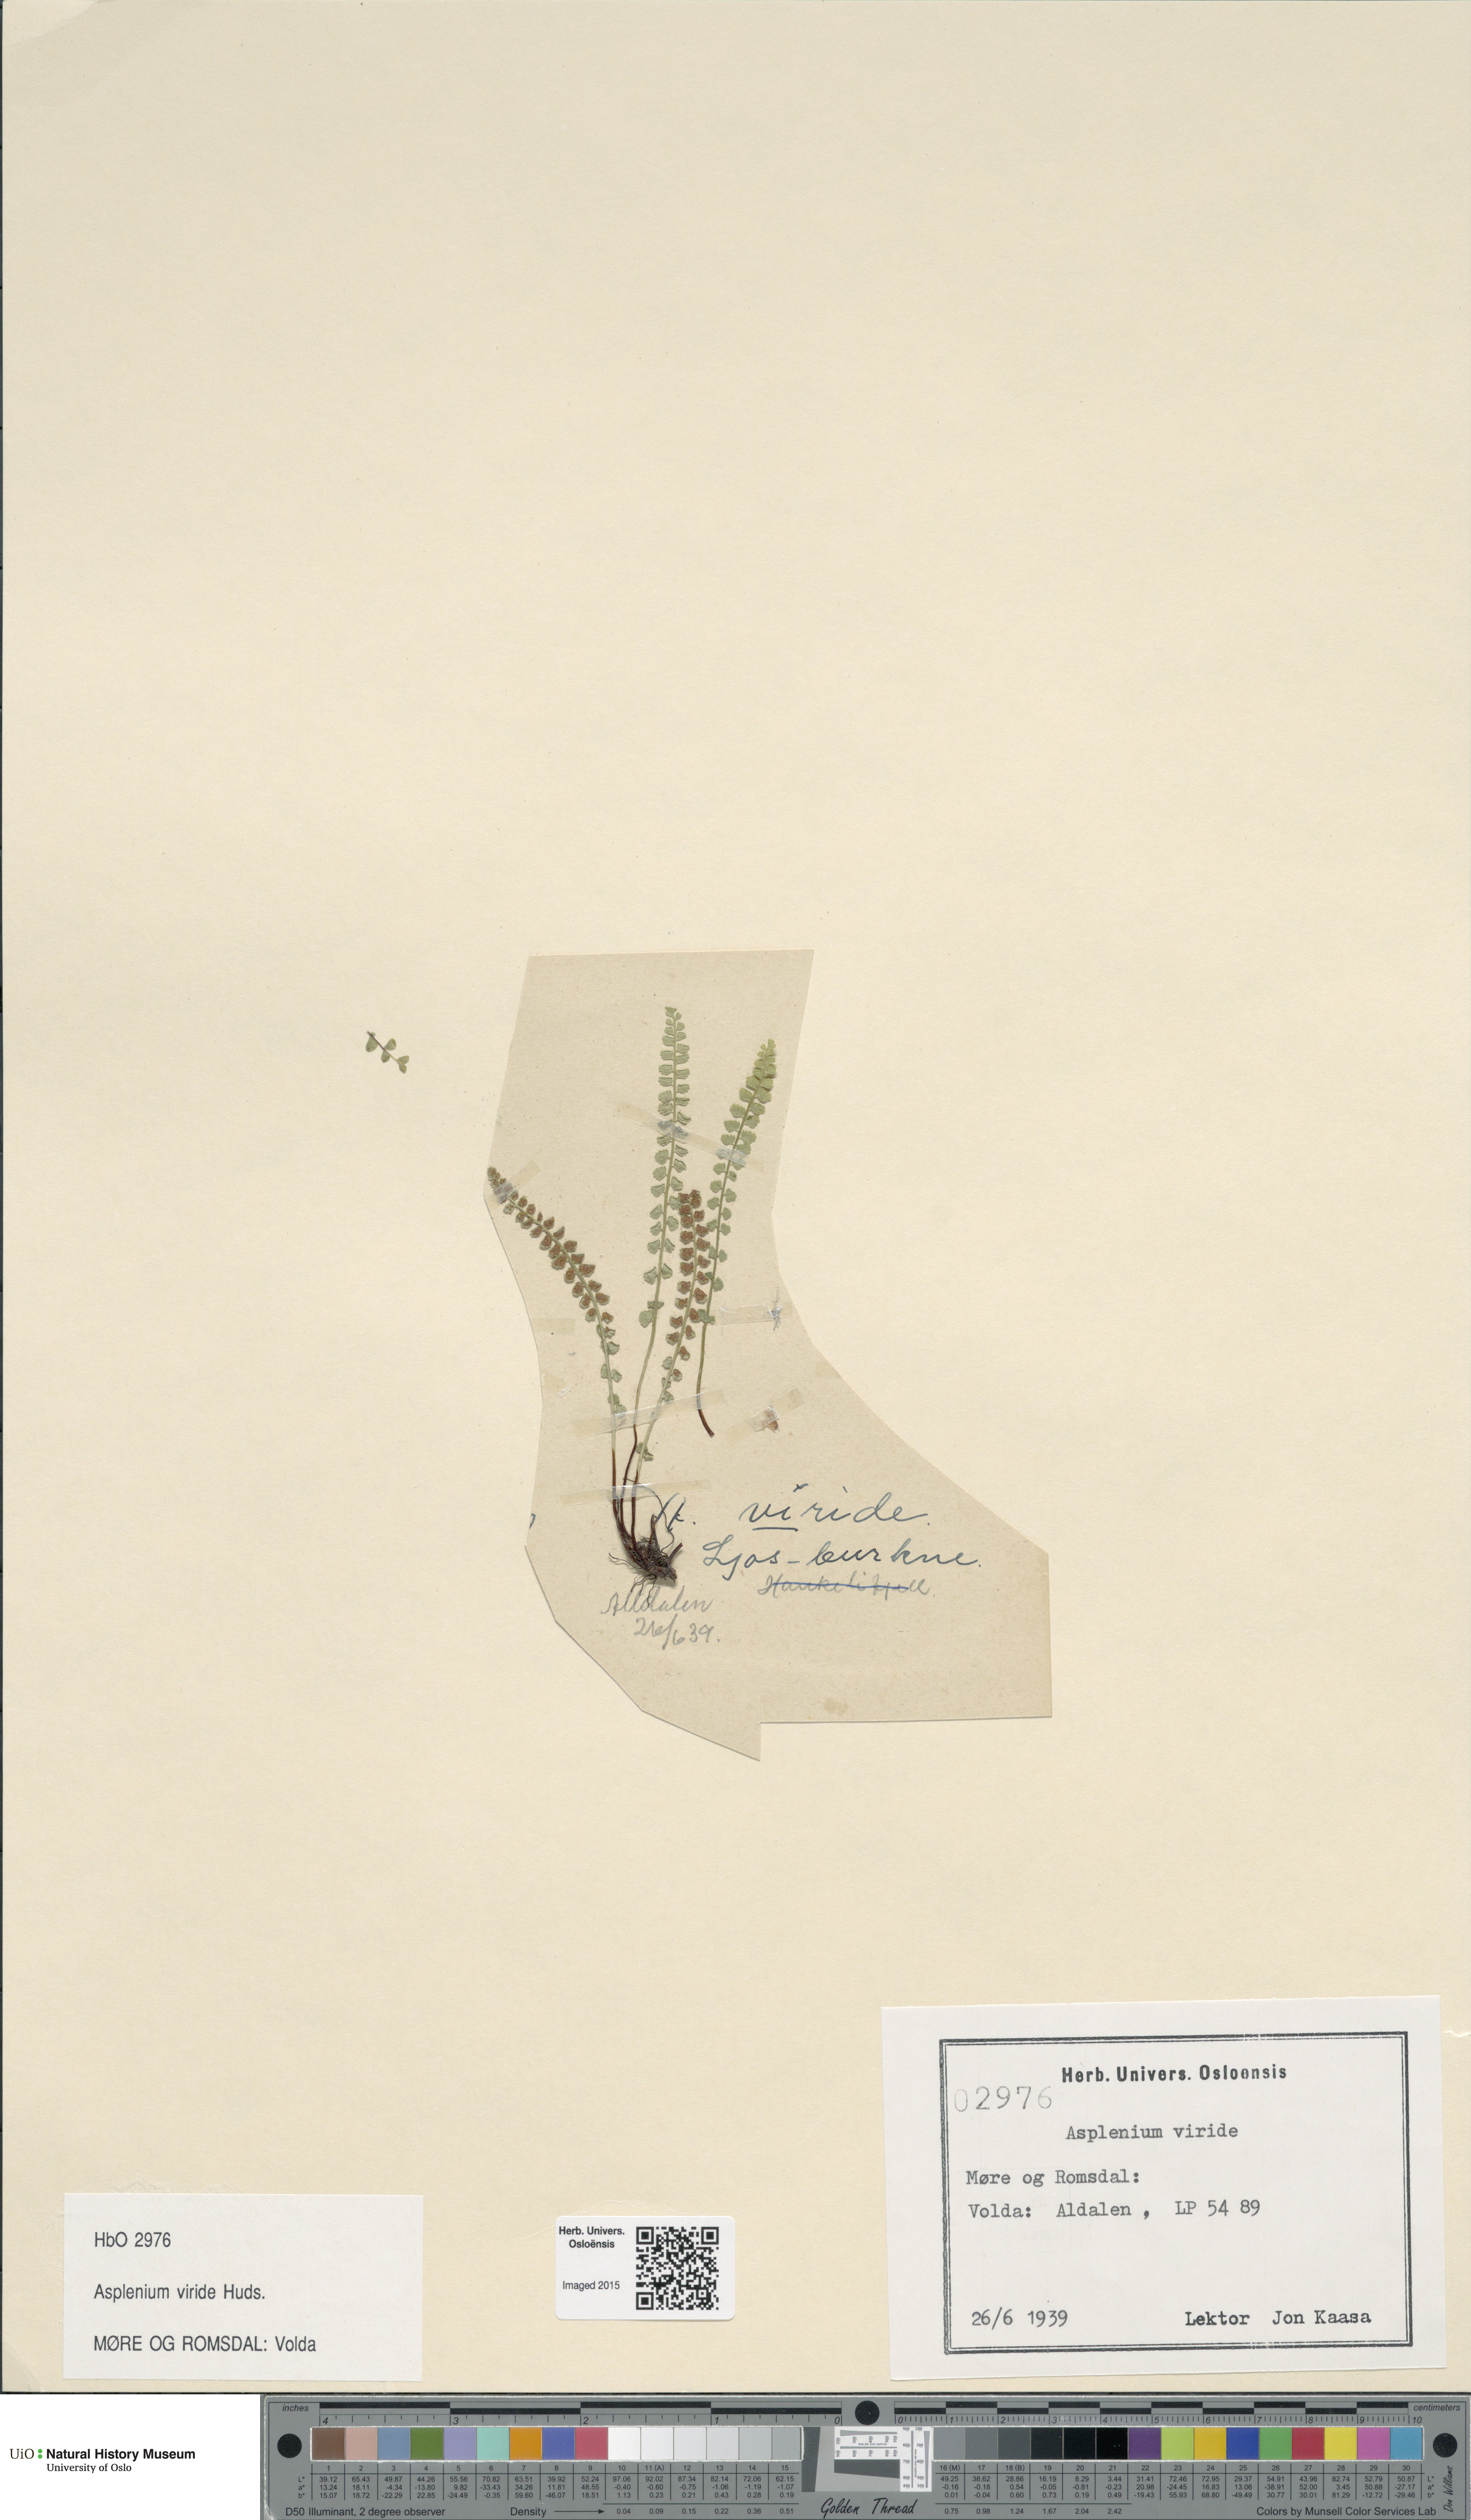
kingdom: Plantae
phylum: Tracheophyta
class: Polypodiopsida
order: Polypodiales
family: Aspleniaceae
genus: Asplenium
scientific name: Asplenium viride
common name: Green spleenwort
